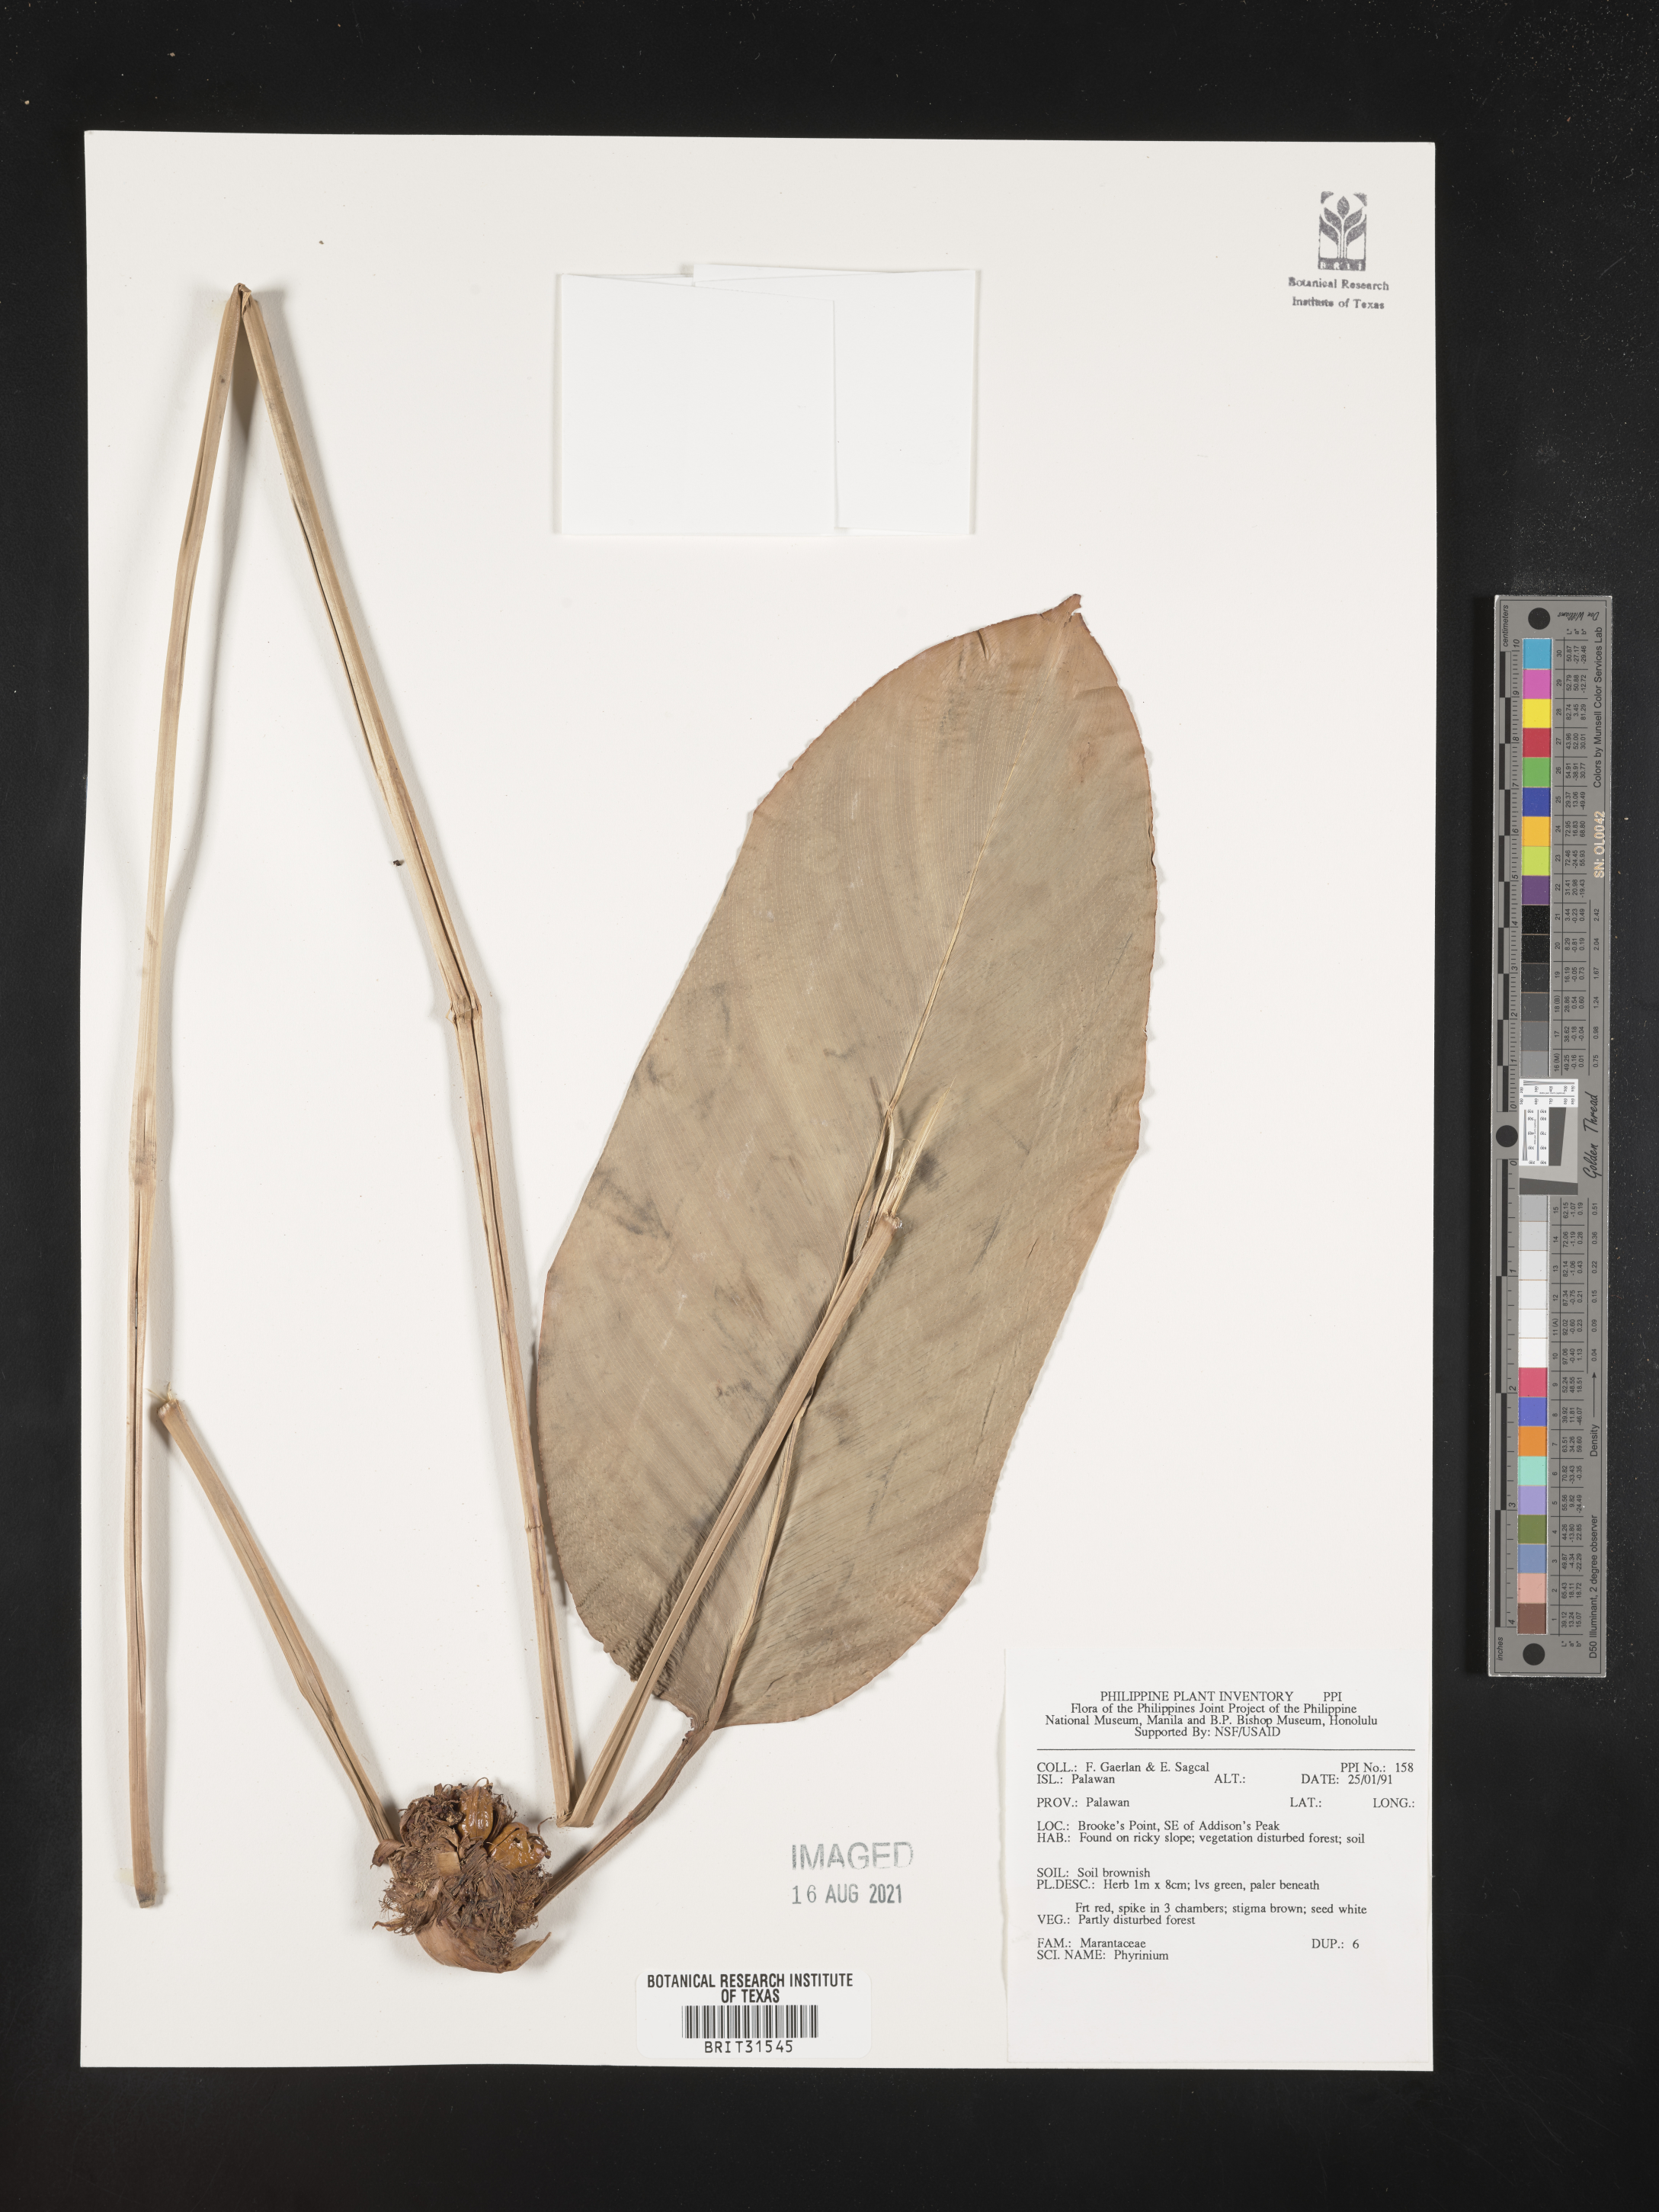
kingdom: Plantae
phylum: Tracheophyta
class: Liliopsida
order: Zingiberales
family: Marantaceae
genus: Phrynium
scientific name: Phrynium
